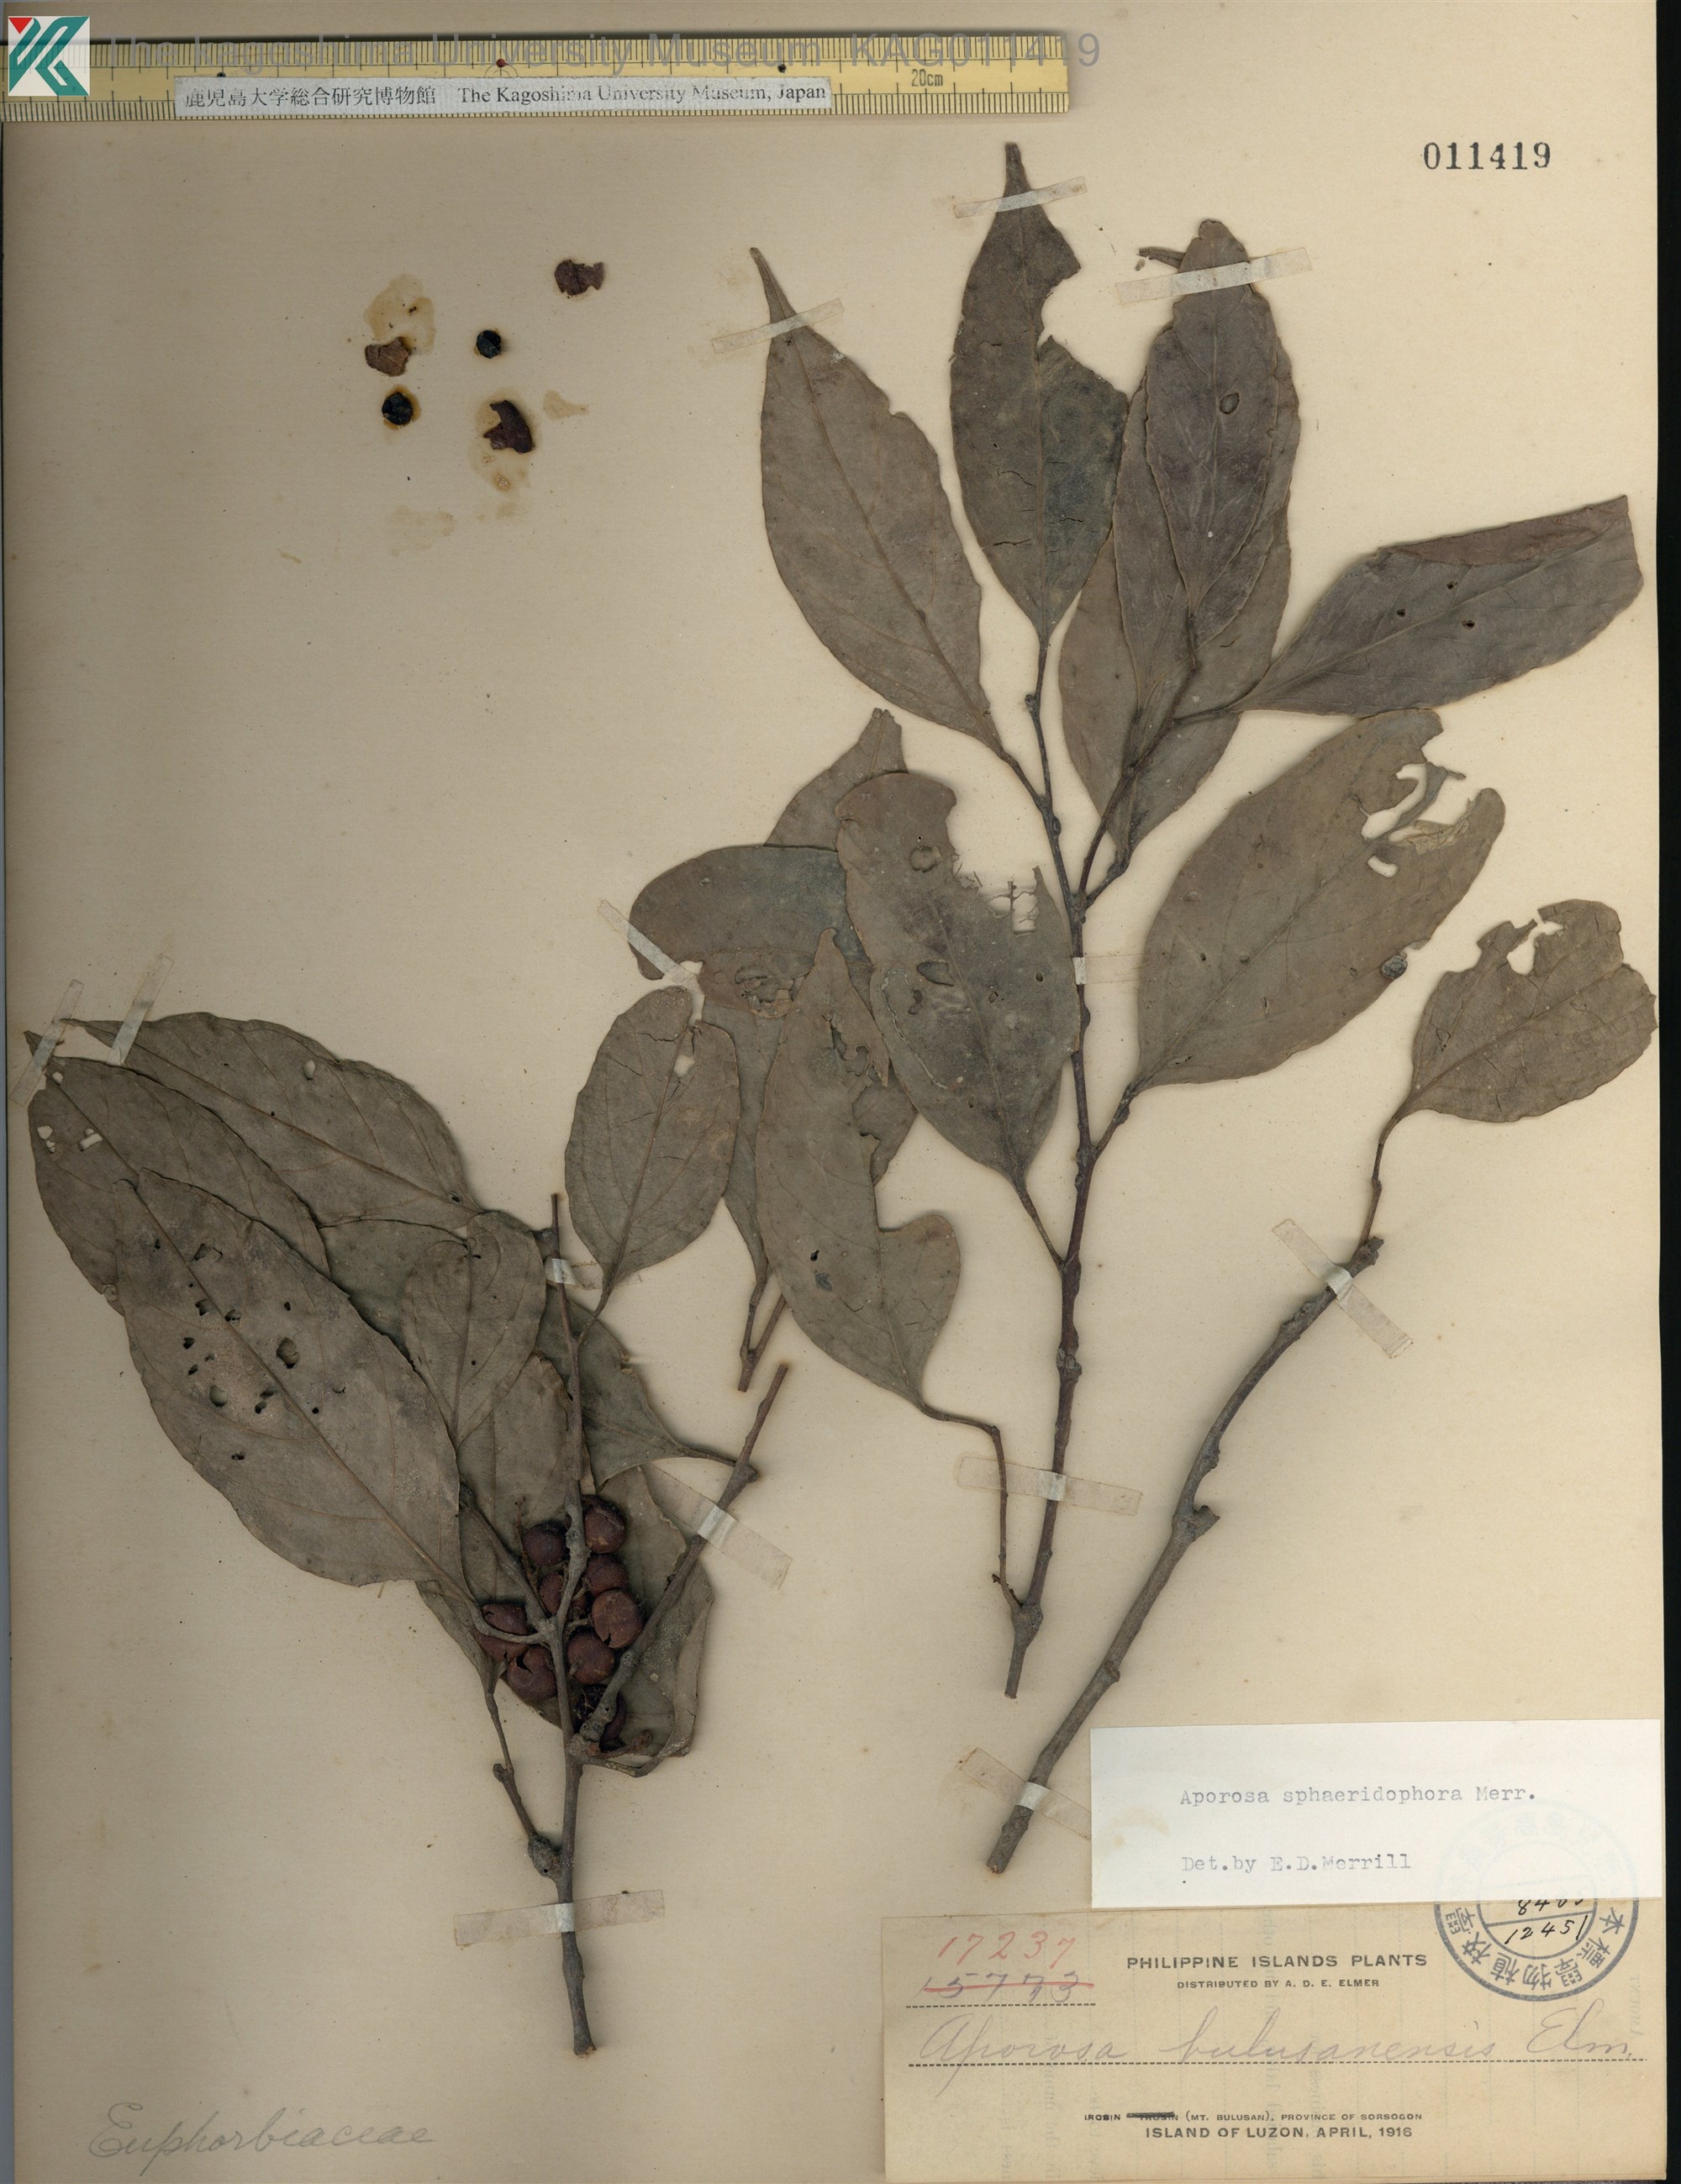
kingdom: Plantae
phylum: Tracheophyta
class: Magnoliopsida
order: Malpighiales
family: Phyllanthaceae
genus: Aporosa
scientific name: Aporosa
